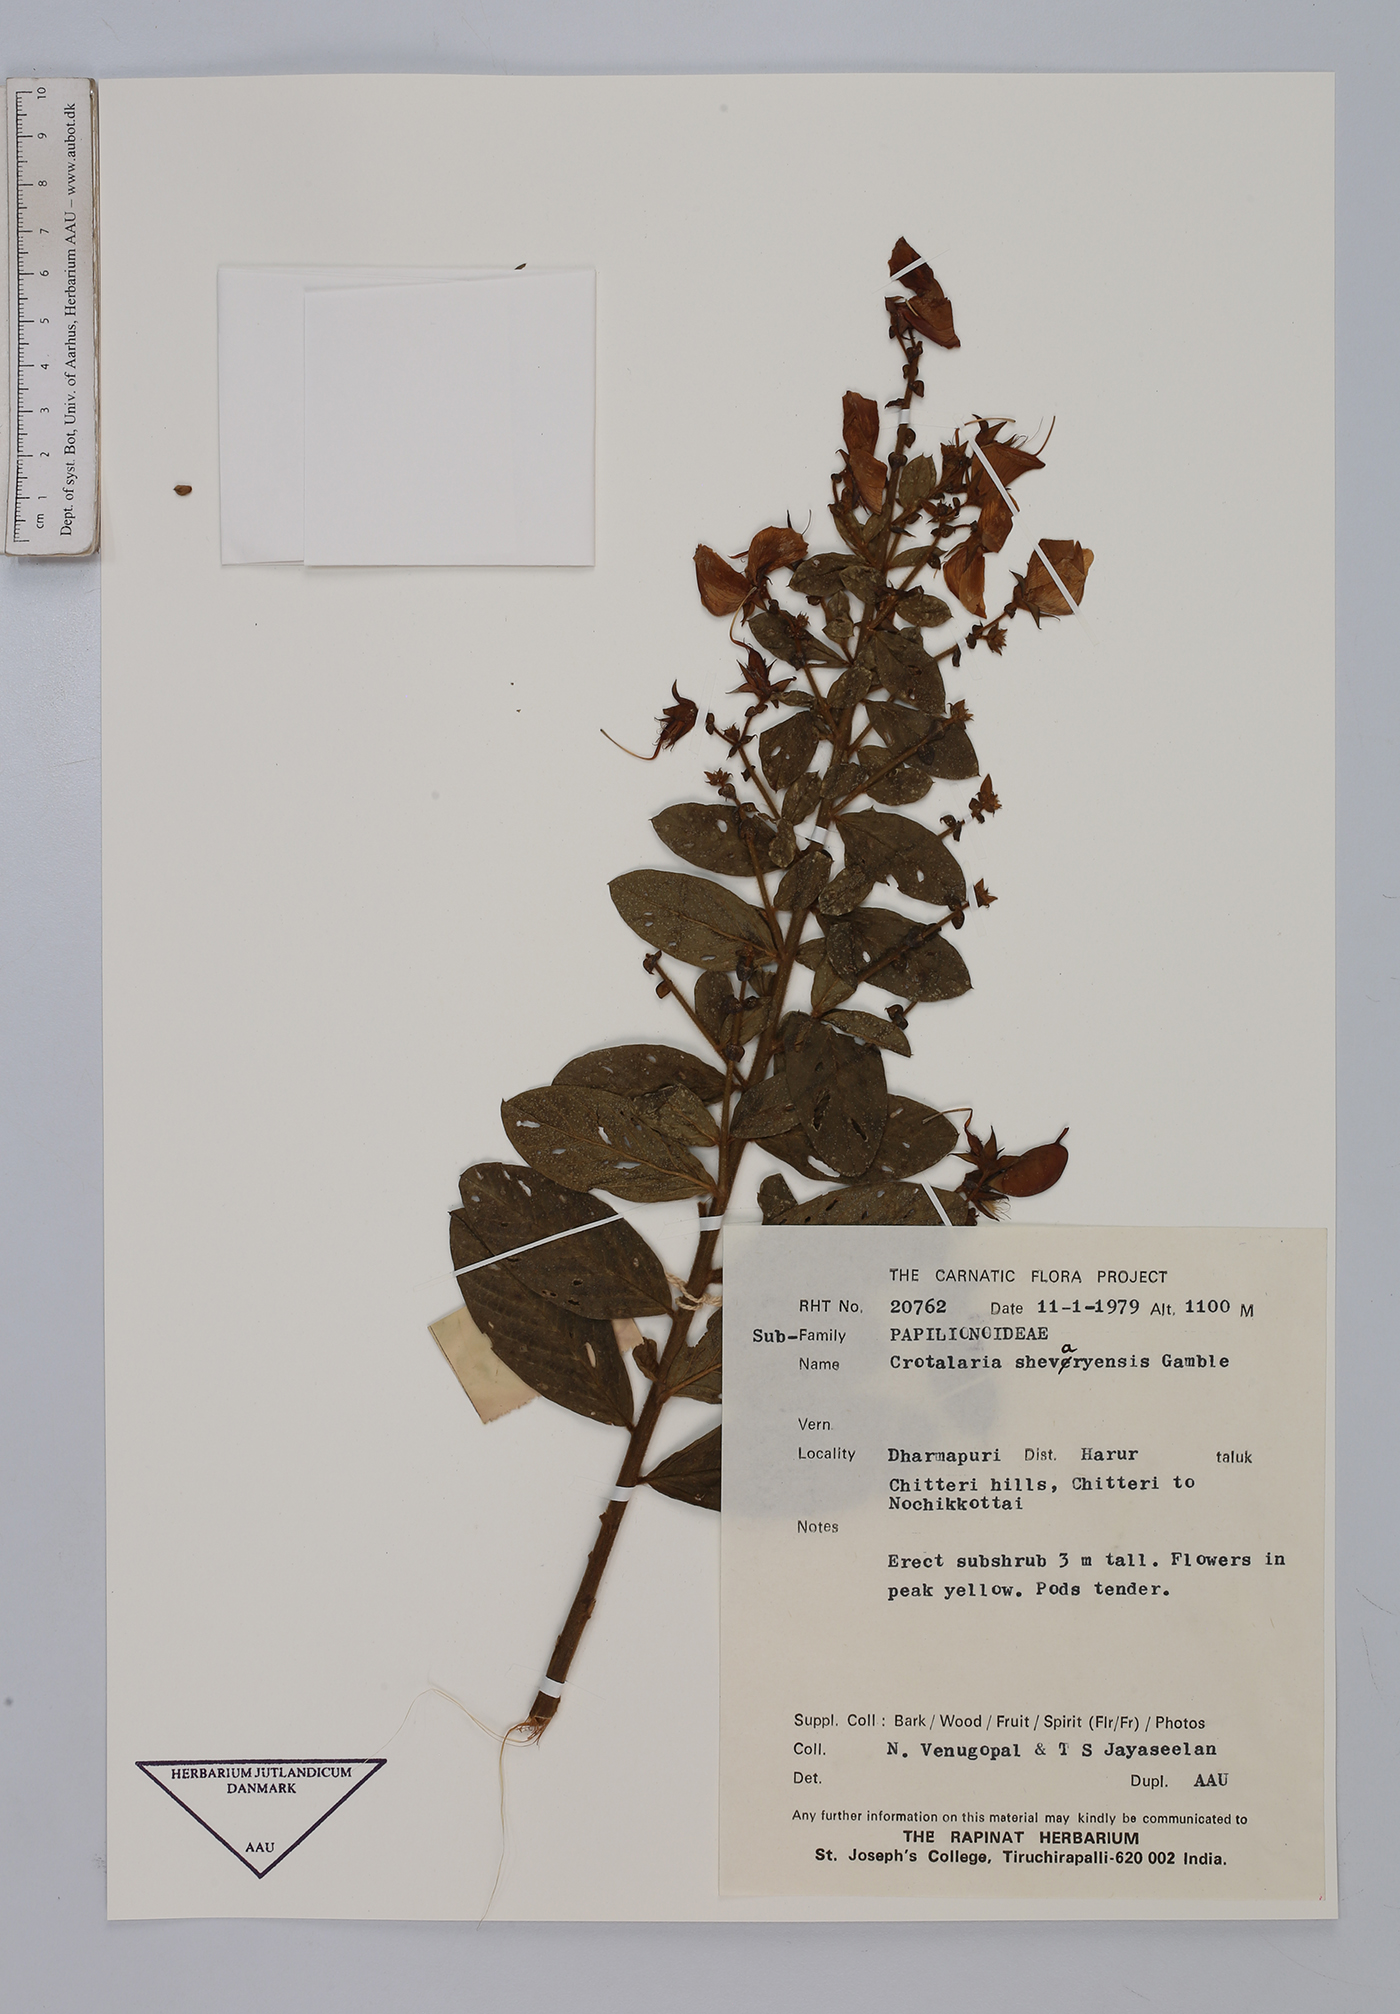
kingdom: Plantae
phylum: Tracheophyta
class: Magnoliopsida
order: Fabales
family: Fabaceae
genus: Crotalaria
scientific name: Crotalaria shevaroyensis
